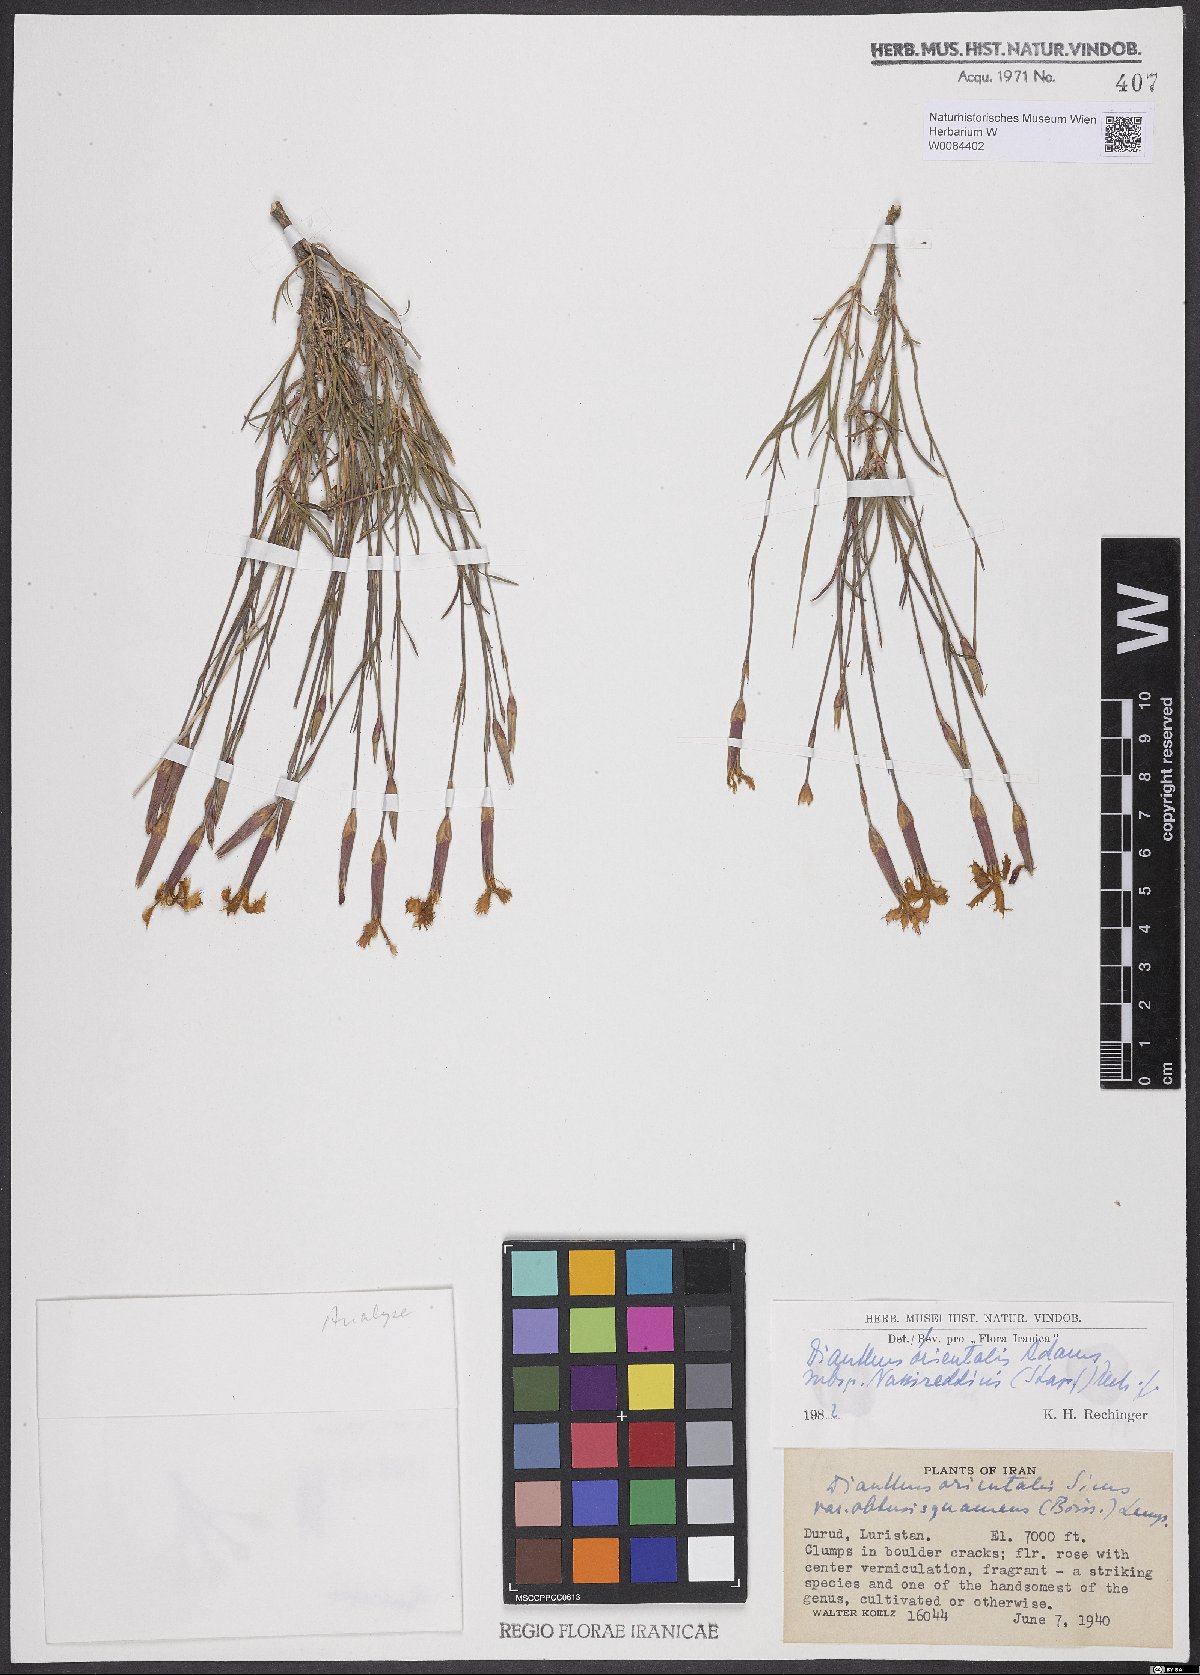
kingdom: Plantae
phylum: Tracheophyta
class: Magnoliopsida
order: Caryophyllales
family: Caryophyllaceae
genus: Dianthus
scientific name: Dianthus orientalis
